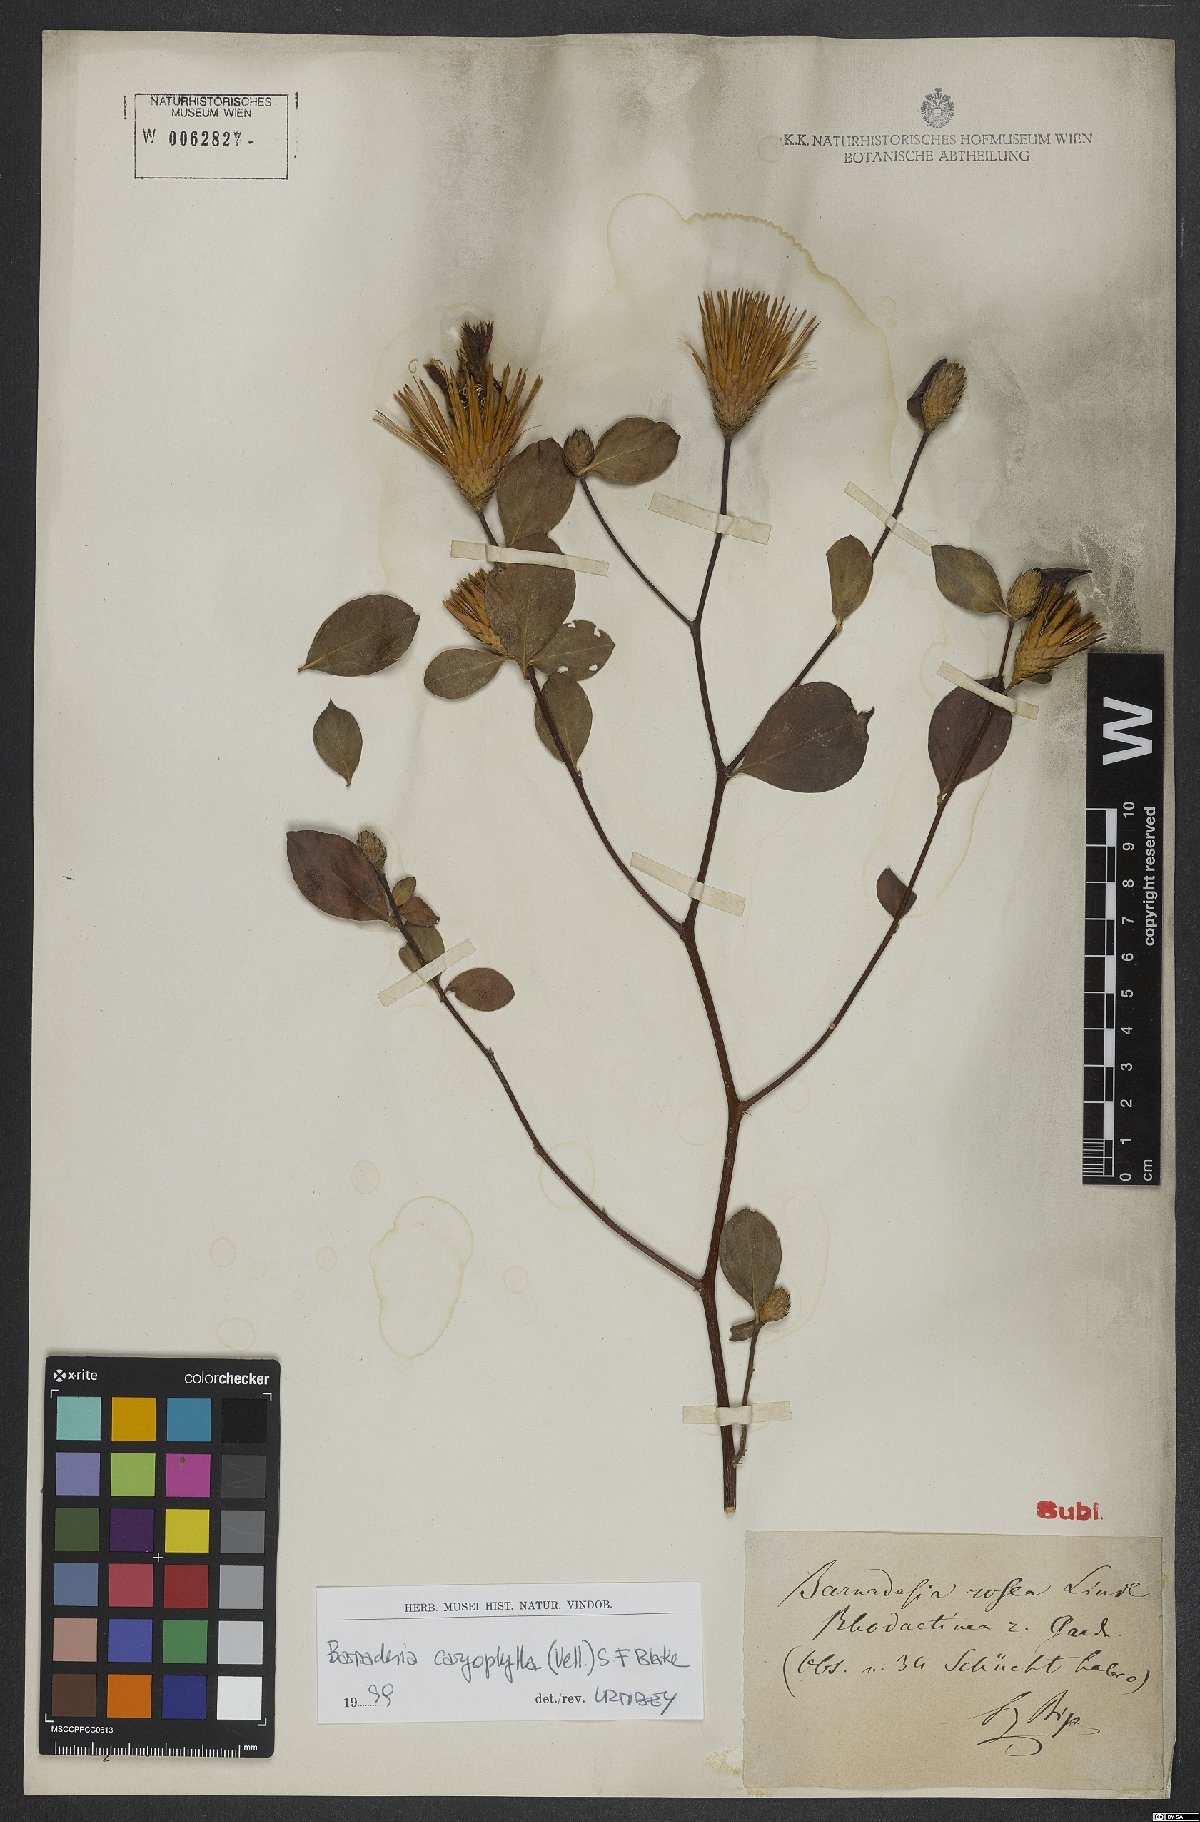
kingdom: Plantae
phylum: Tracheophyta
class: Magnoliopsida
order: Asterales
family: Asteraceae
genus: Barnadesia
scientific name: Barnadesia caryophylla
